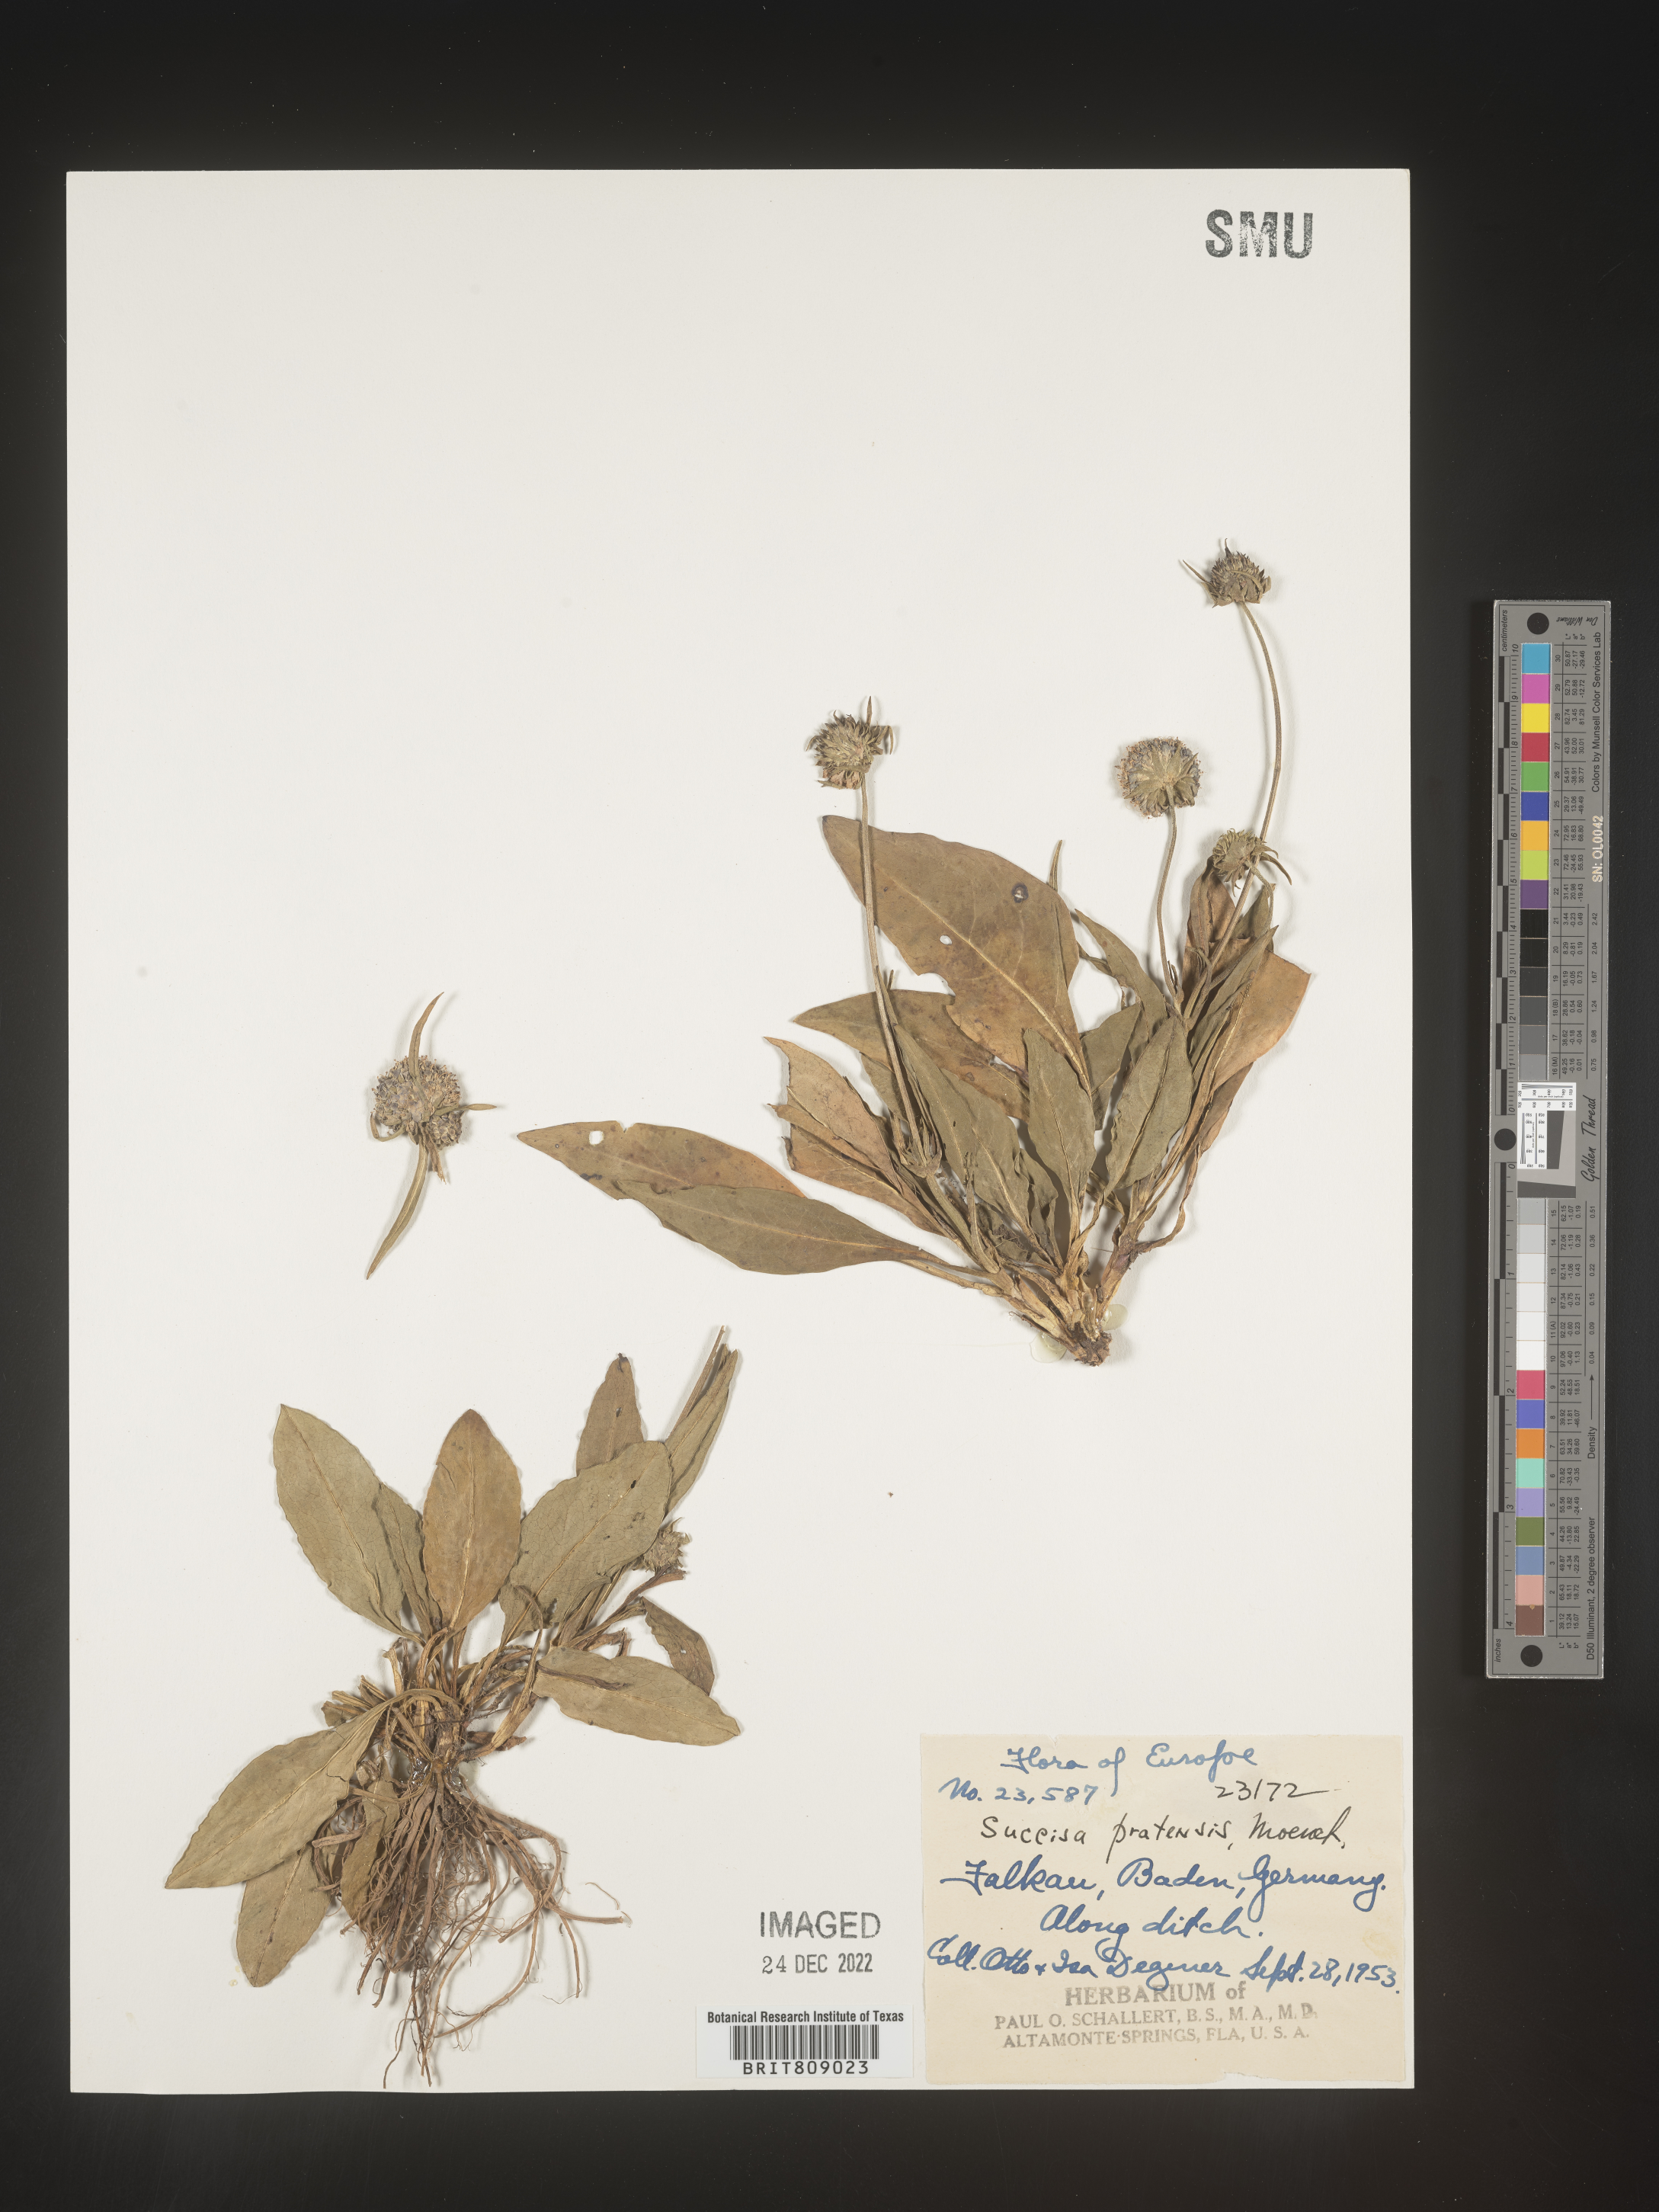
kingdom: Plantae
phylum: Tracheophyta
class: Magnoliopsida
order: Dipsacales
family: Caprifoliaceae
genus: Succisa
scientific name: Succisa
